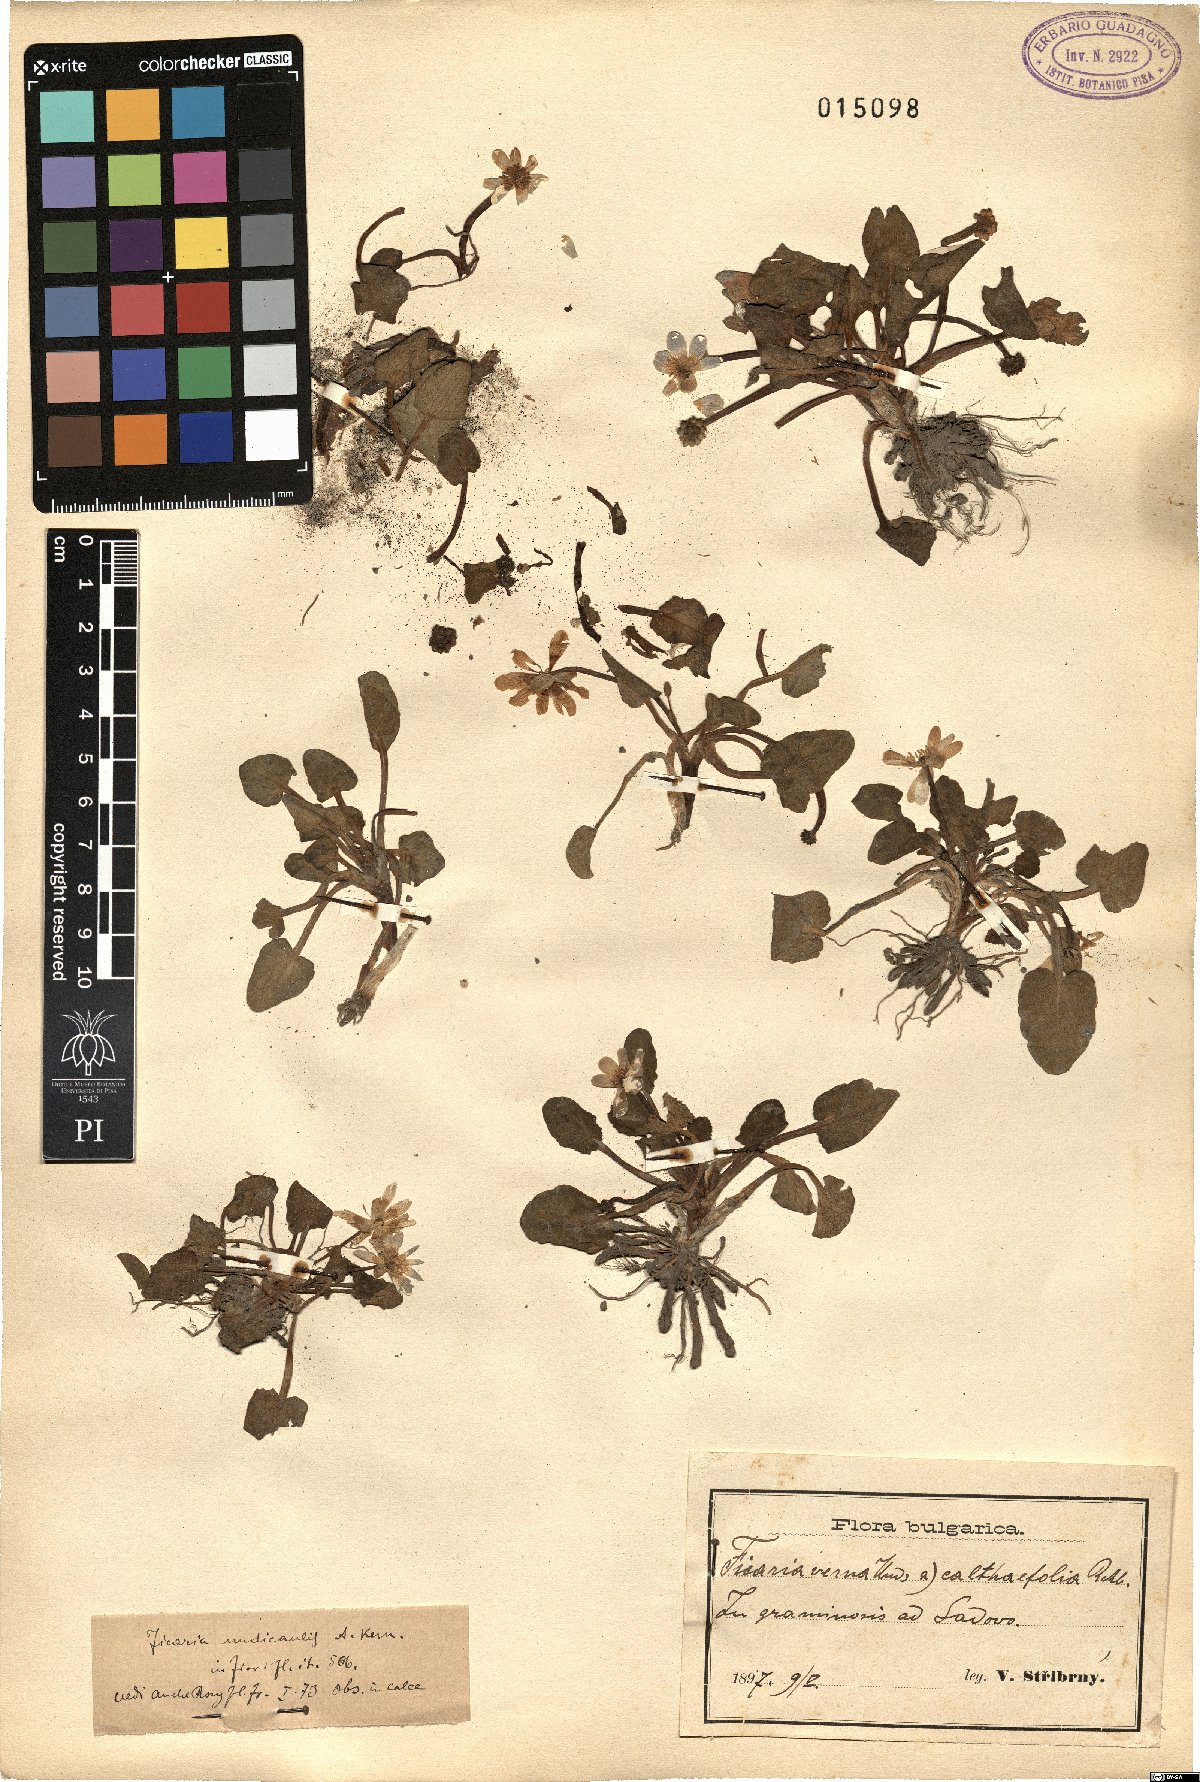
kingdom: Plantae
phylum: Tracheophyta
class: Magnoliopsida
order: Ranunculales
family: Ranunculaceae
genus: Ficaria
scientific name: Ficaria calthifolia
